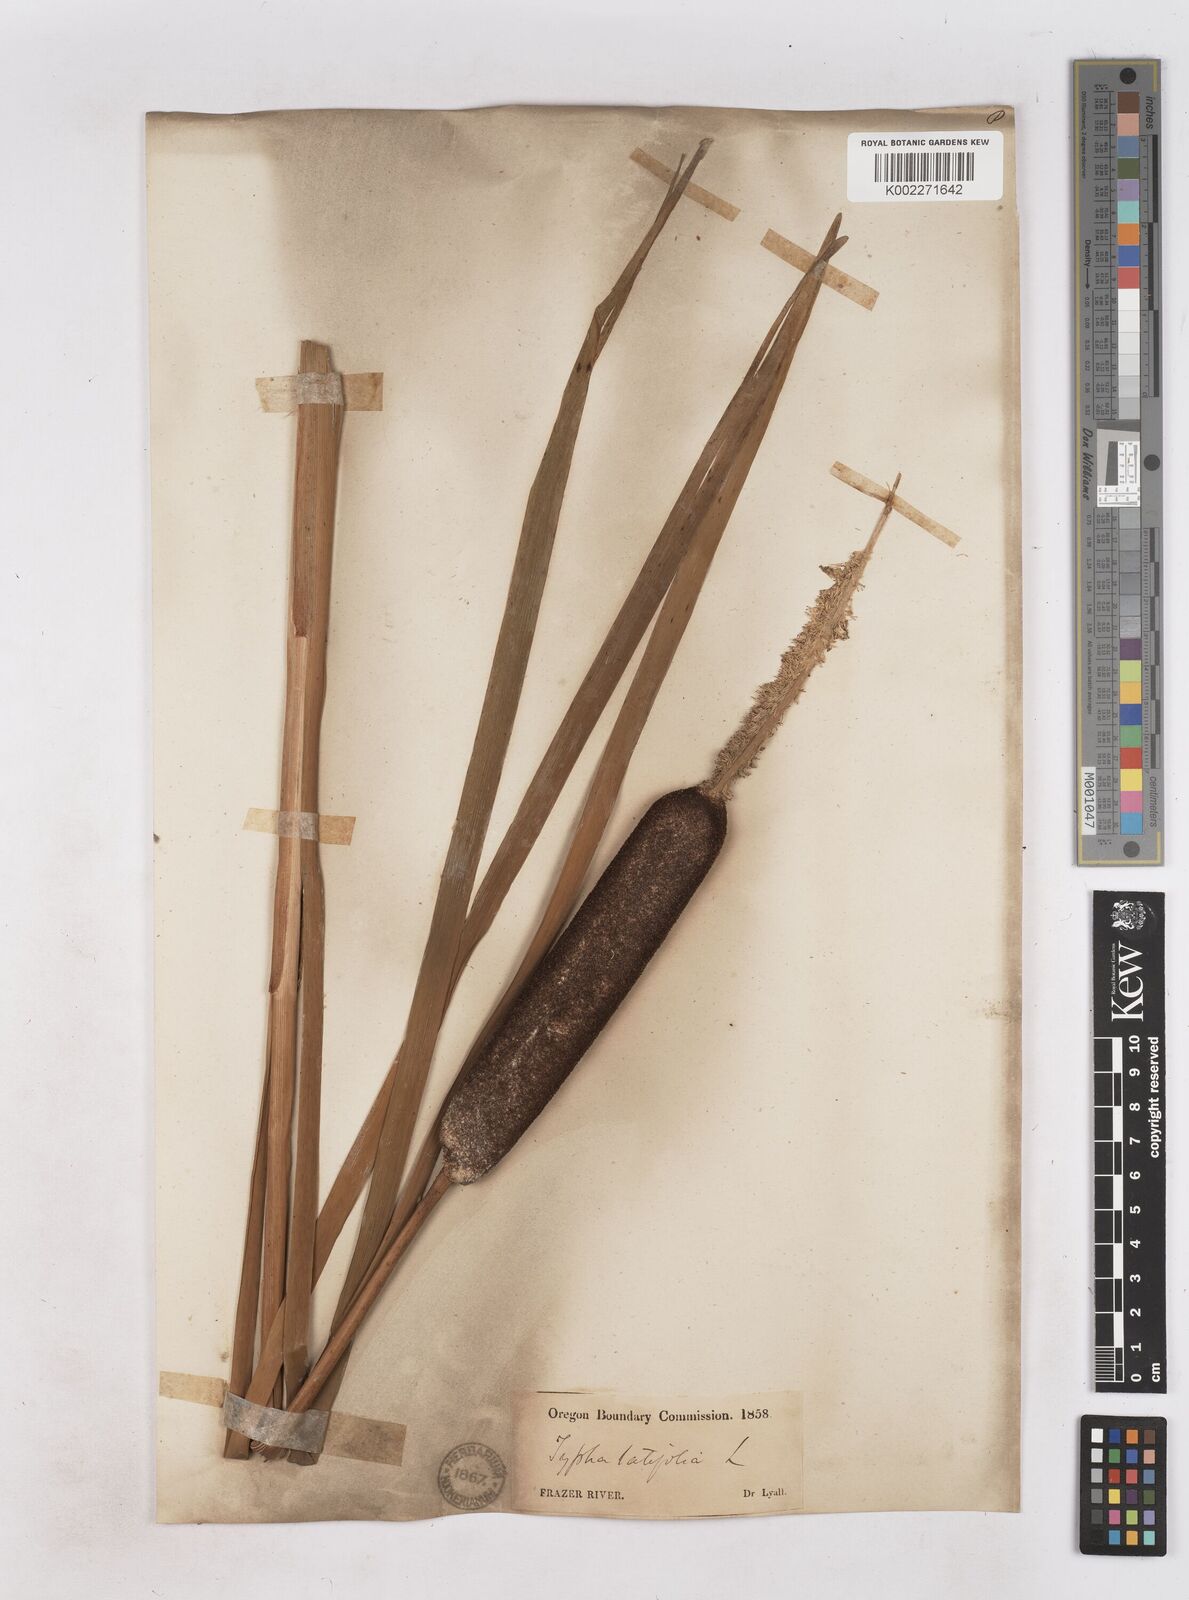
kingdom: Plantae
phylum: Tracheophyta
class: Liliopsida
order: Poales
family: Typhaceae
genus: Typha
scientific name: Typha latifolia
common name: Broadleaf cattail
